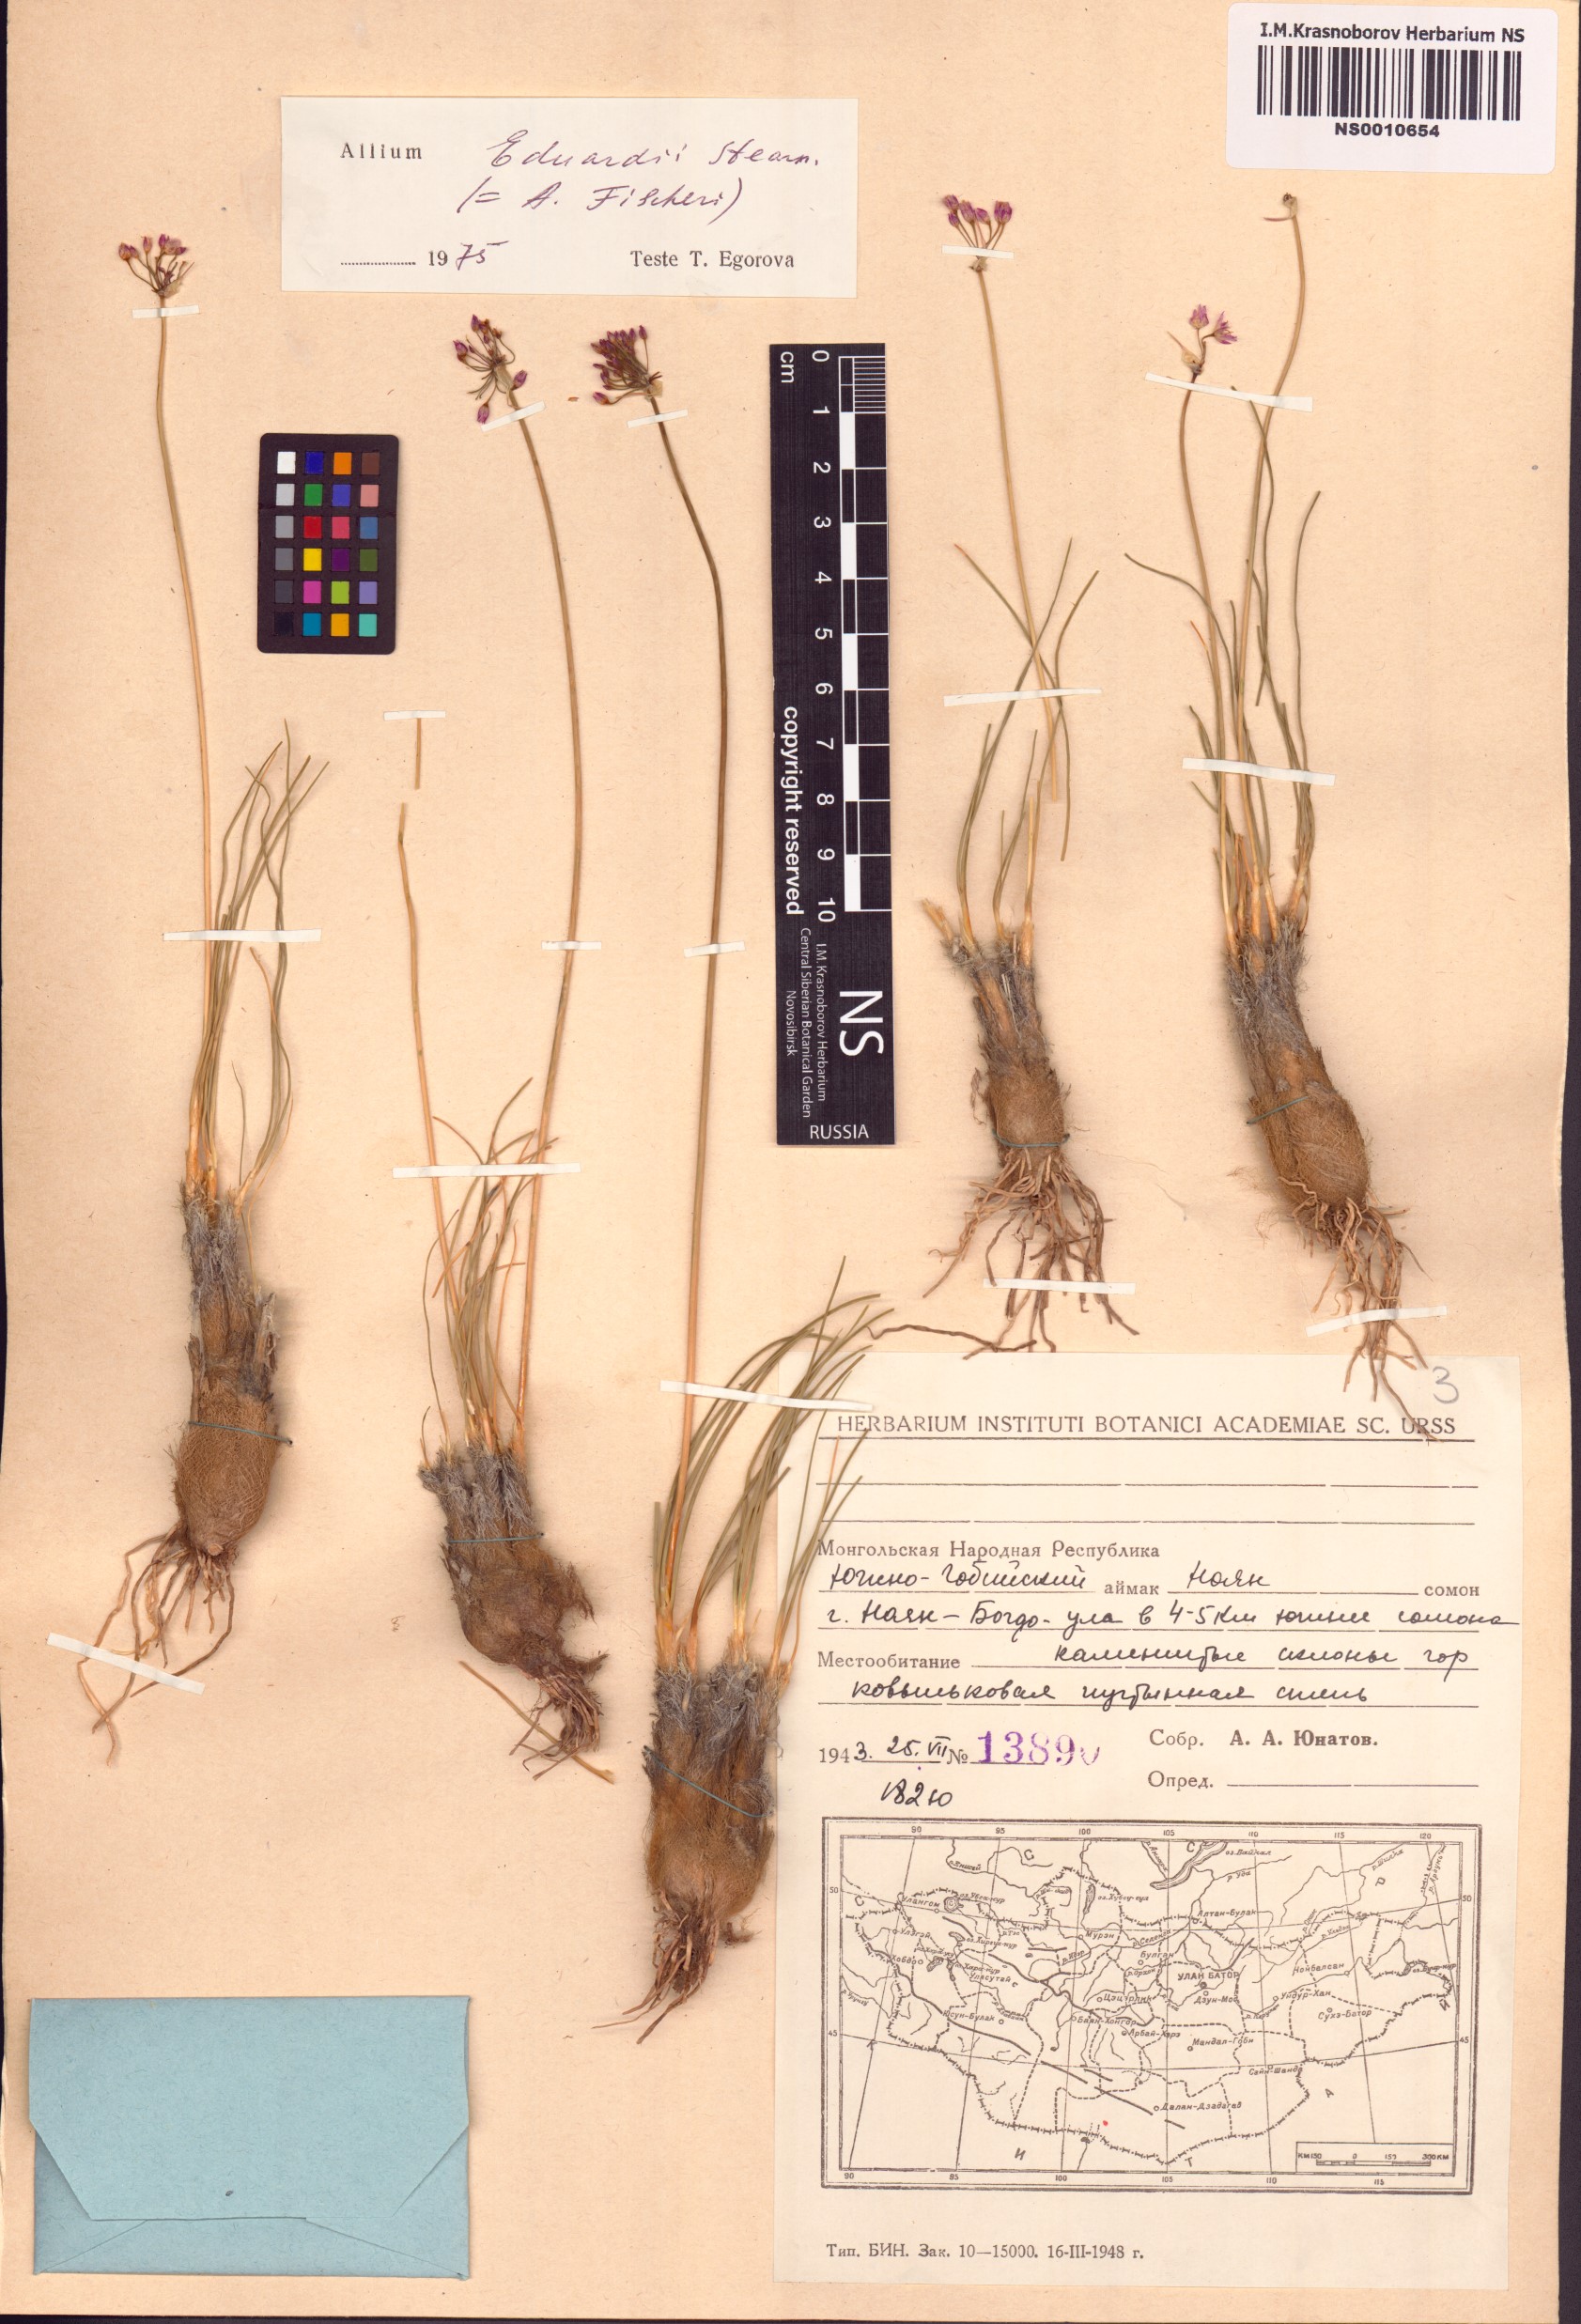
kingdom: Plantae
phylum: Tracheophyta
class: Liliopsida
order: Asparagales
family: Amaryllidaceae
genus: Allium
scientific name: Allium eduardi
